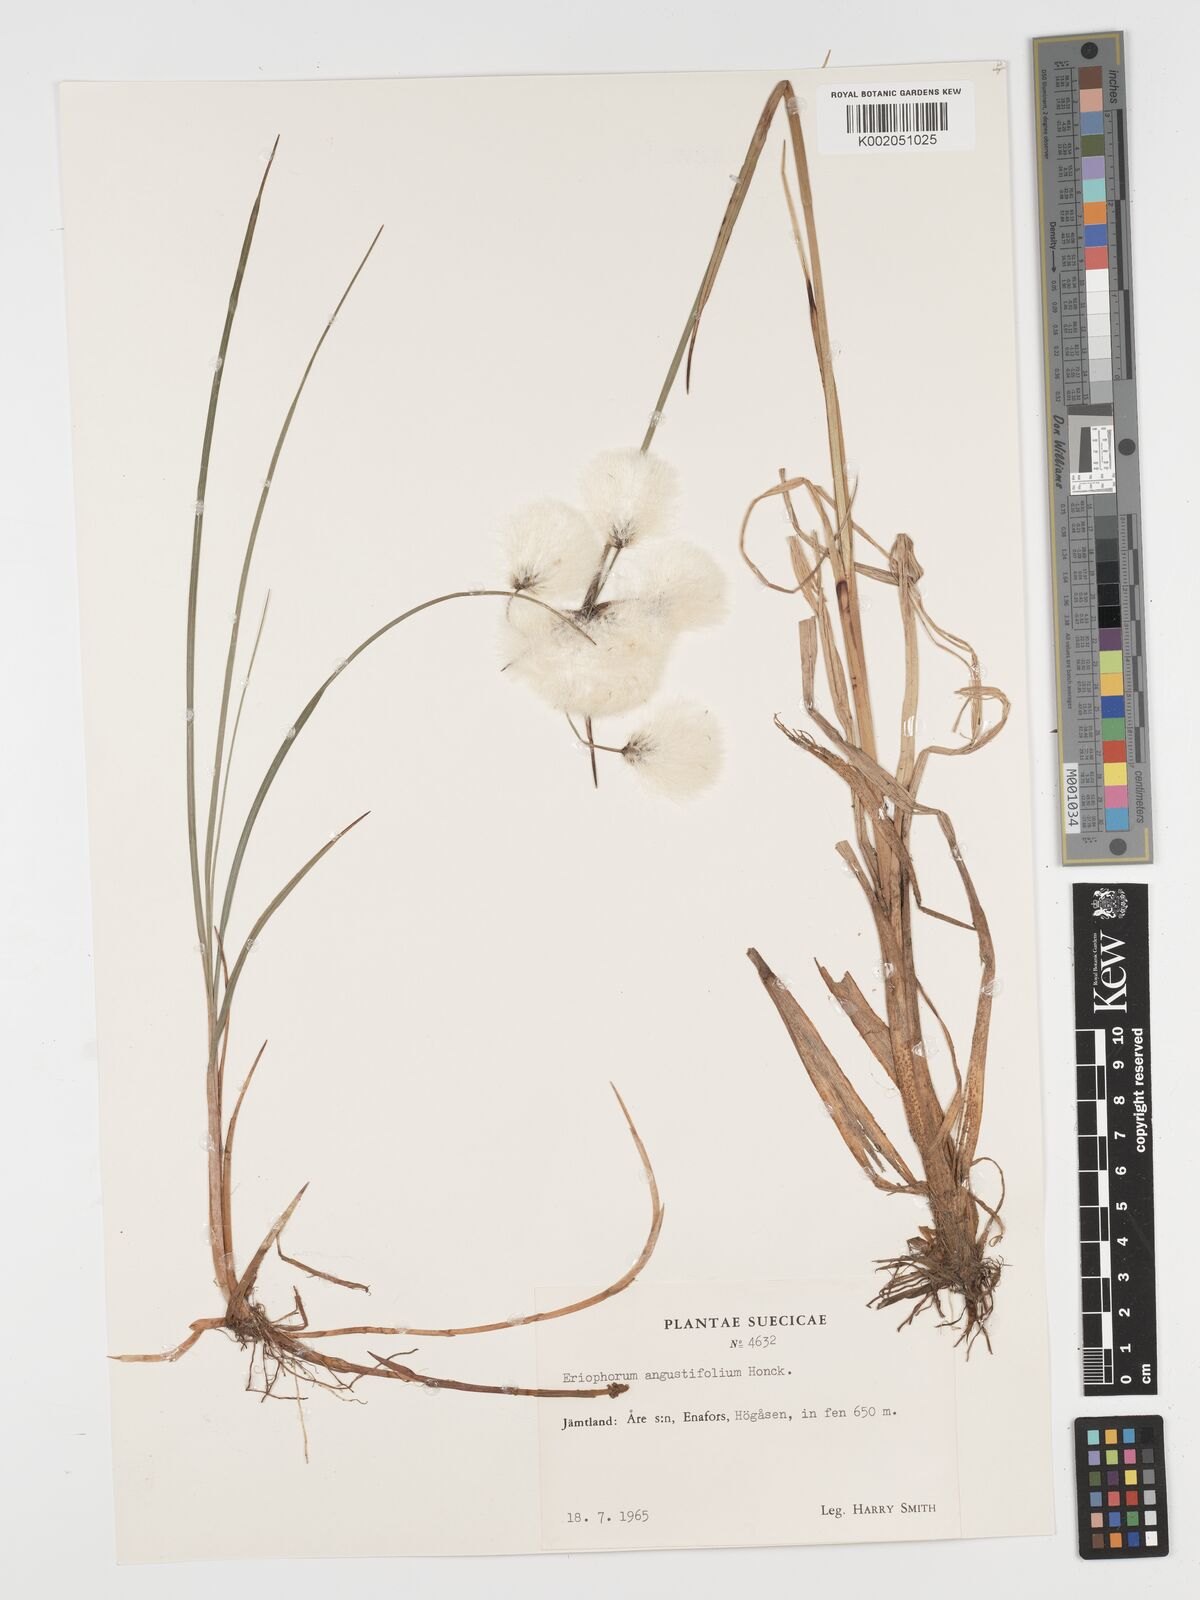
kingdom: Plantae
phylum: Tracheophyta
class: Liliopsida
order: Poales
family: Cyperaceae
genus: Eriophorum
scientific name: Eriophorum angustifolium
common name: Common cottongrass
